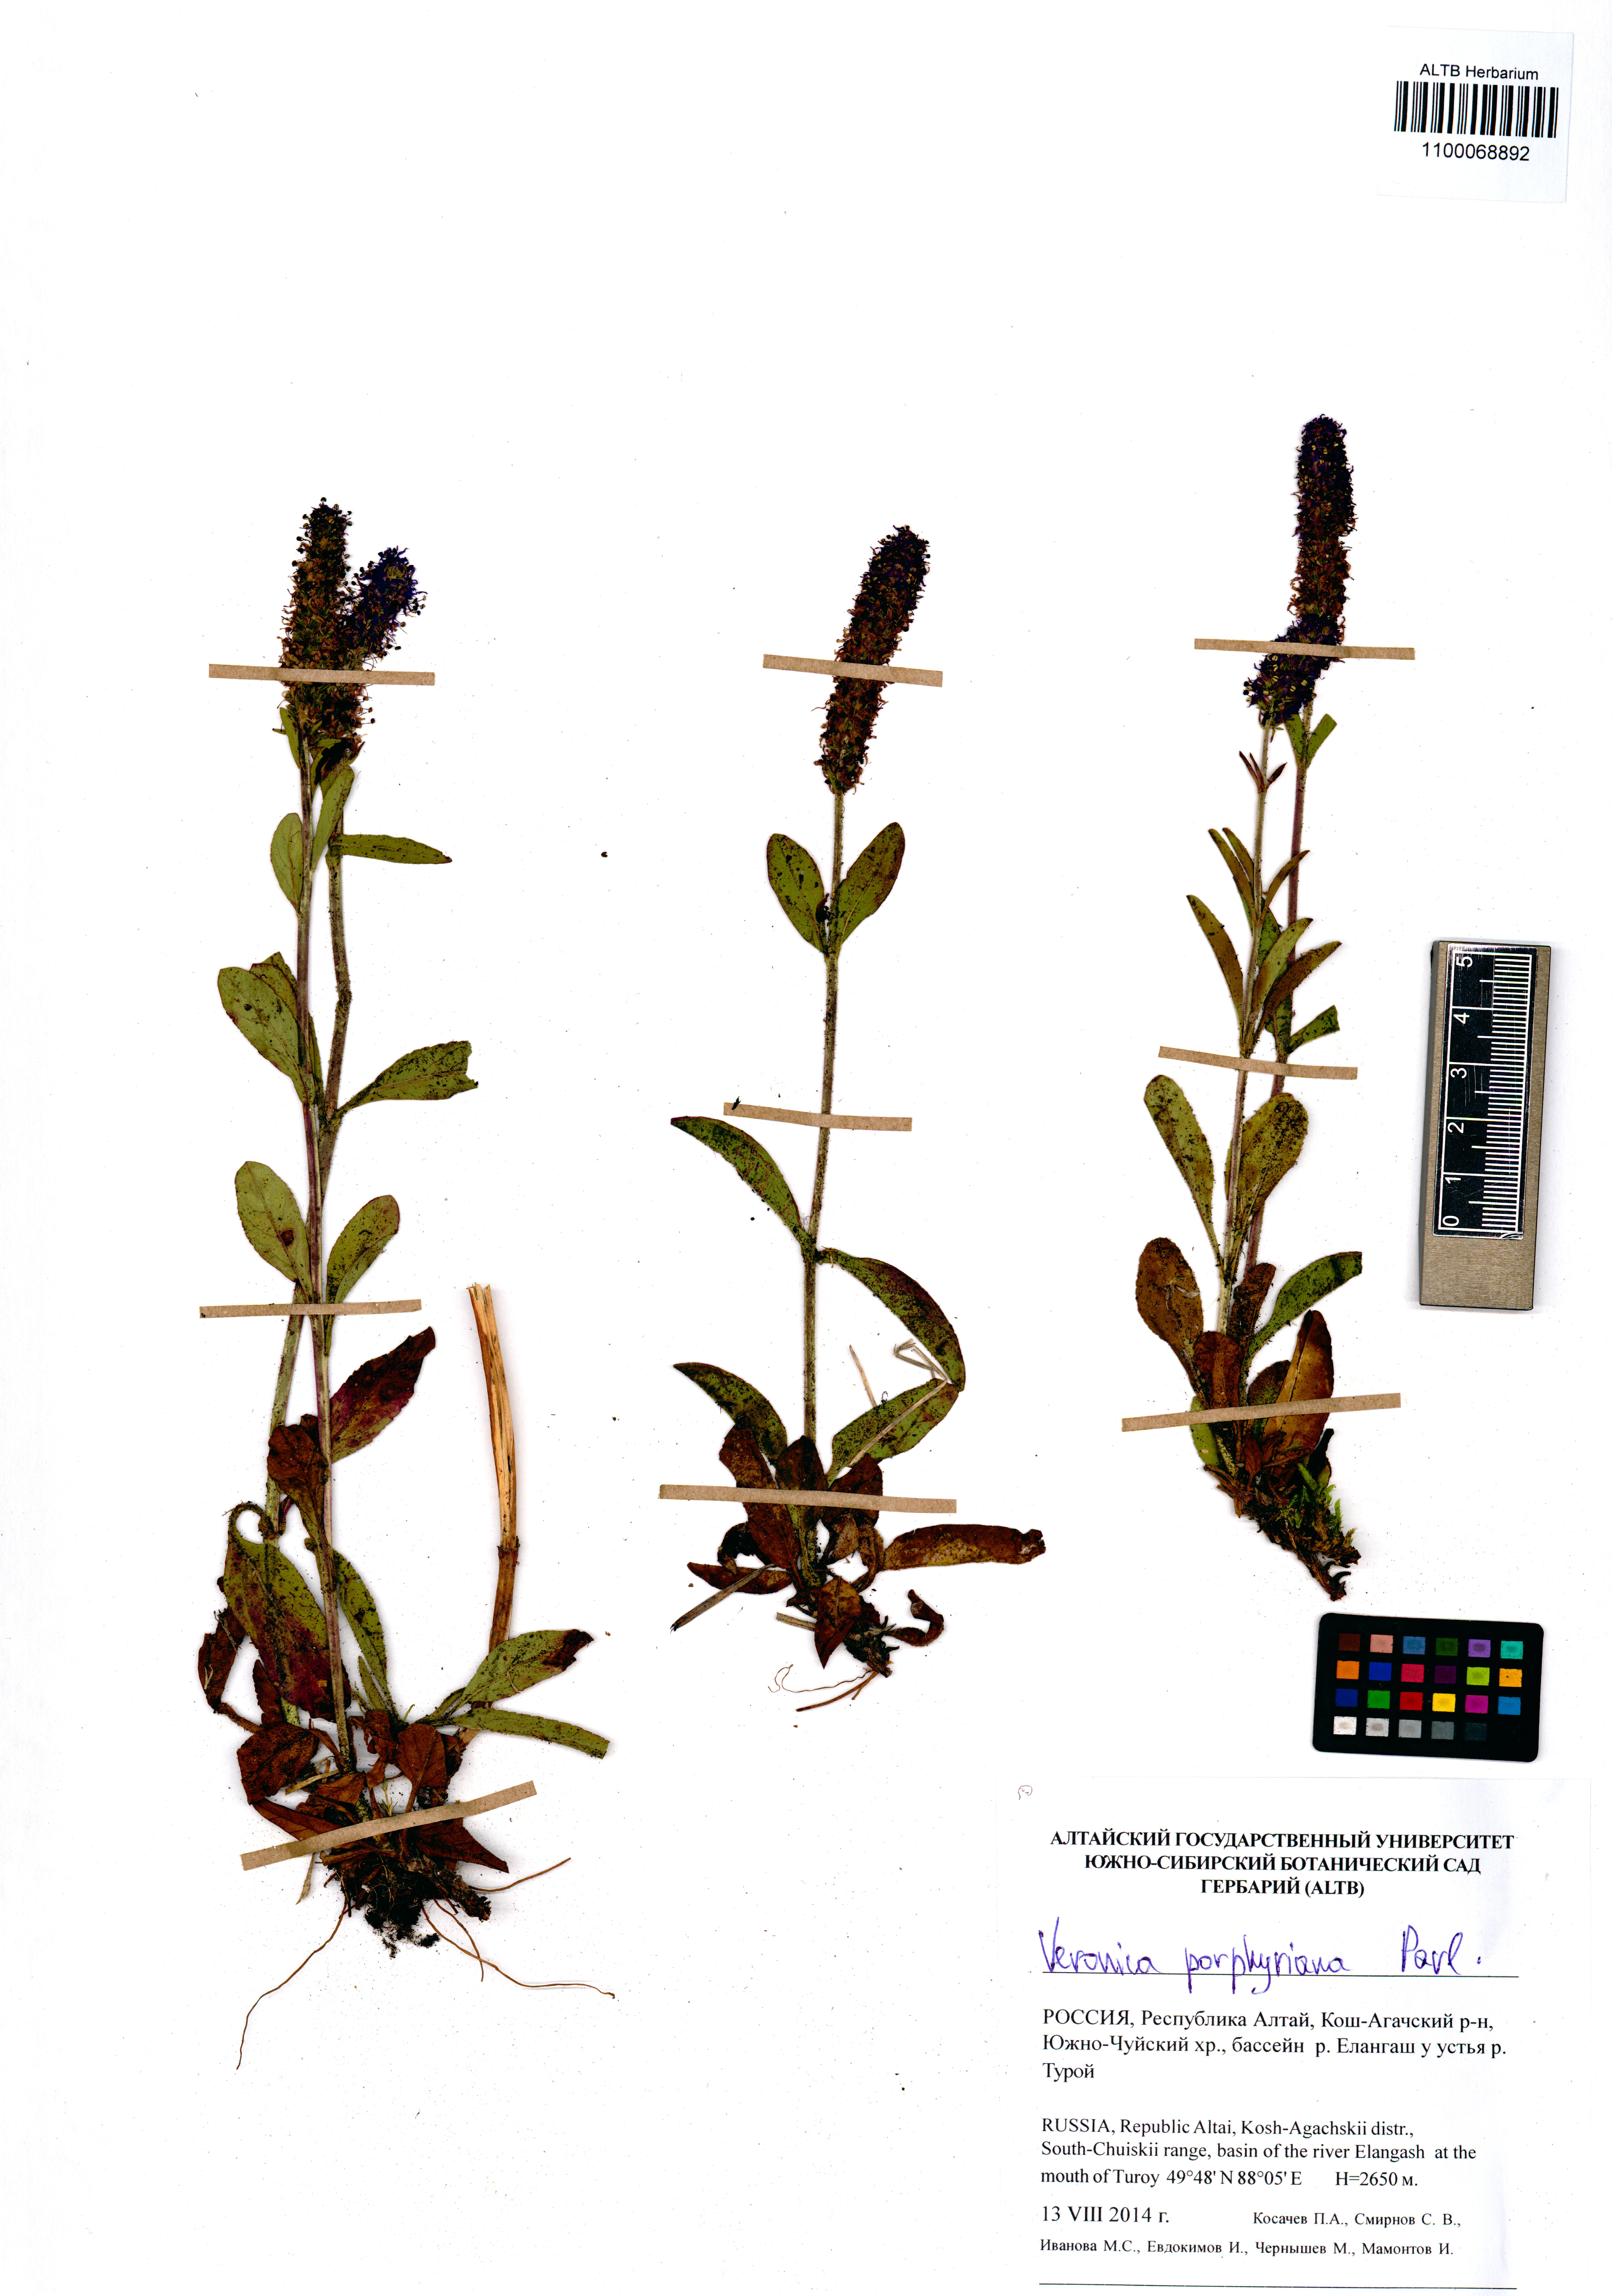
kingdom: Plantae
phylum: Tracheophyta
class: Magnoliopsida
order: Lamiales
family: Plantaginaceae
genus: Veronica
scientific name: Veronica porphyriana
